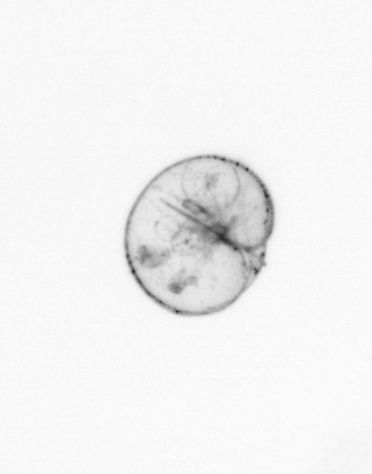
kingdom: Chromista
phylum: Myzozoa
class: Dinophyceae
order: Noctilucales
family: Noctilucaceae
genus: Noctiluca
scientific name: Noctiluca scintillans
